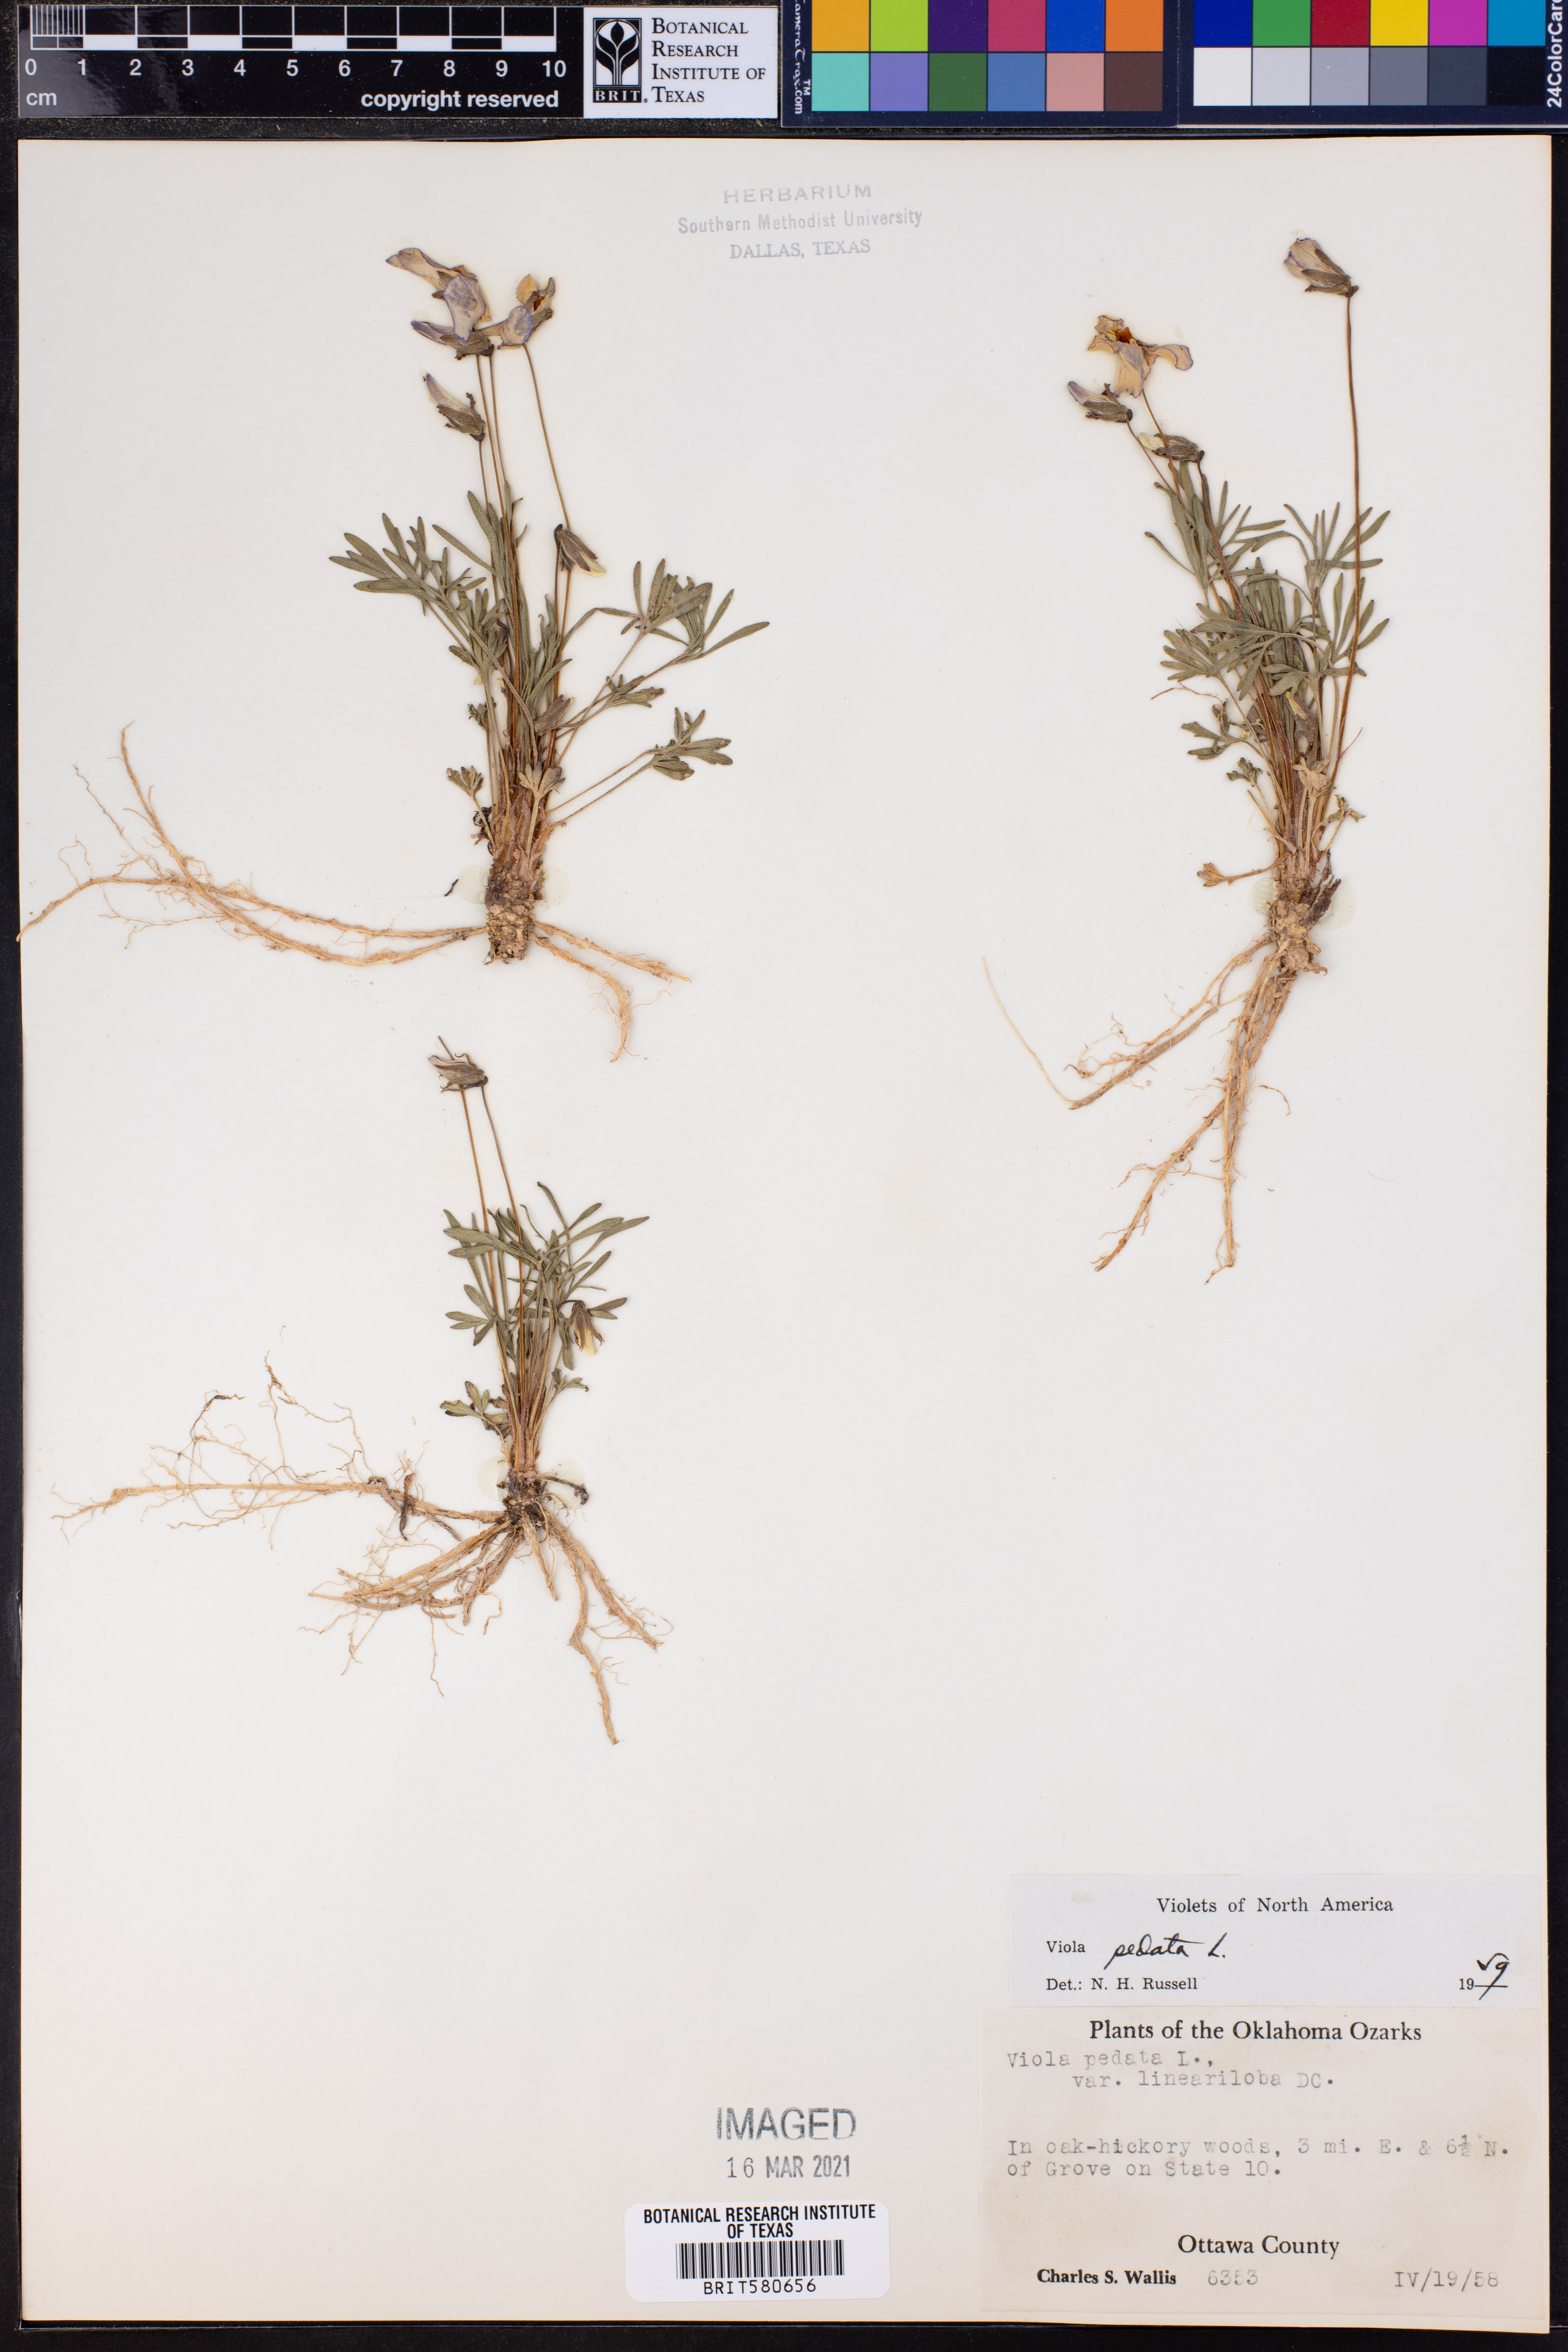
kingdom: Plantae
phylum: Tracheophyta
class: Magnoliopsida
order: Malpighiales
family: Violaceae
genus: Viola
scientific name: Viola pedata
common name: Pansy violet
